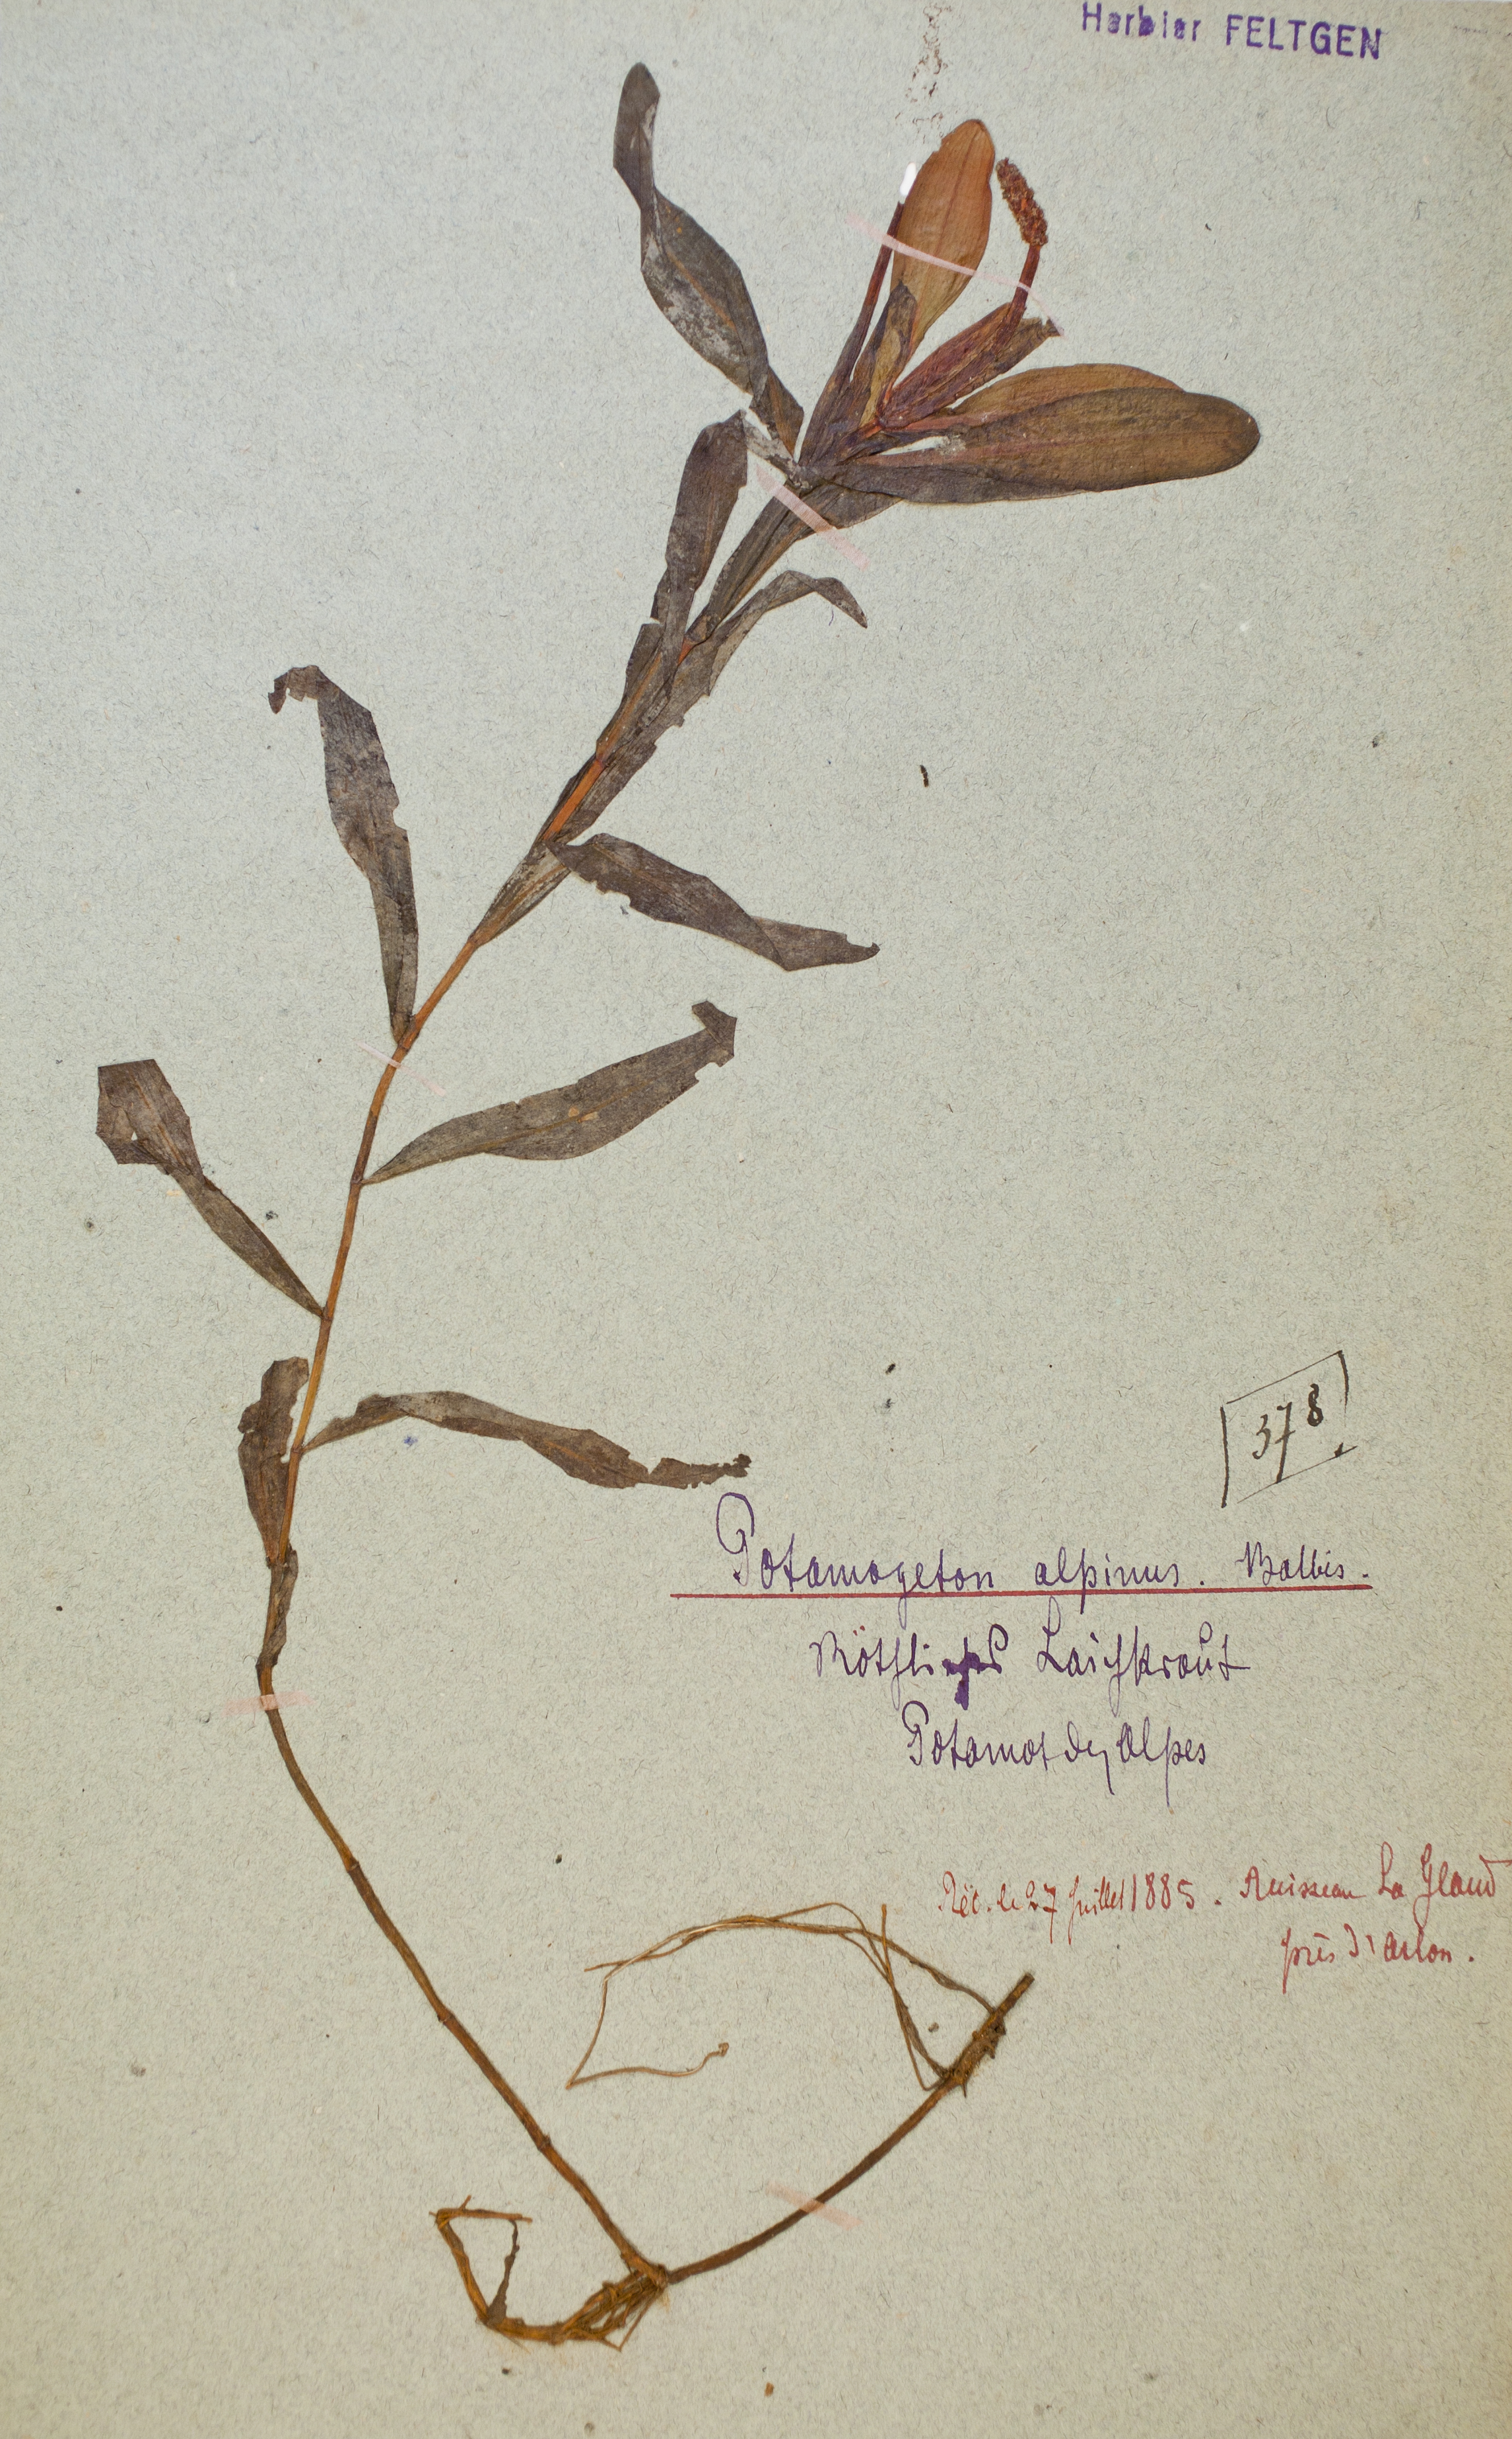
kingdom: Plantae
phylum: Tracheophyta
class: Liliopsida
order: Alismatales
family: Potamogetonaceae
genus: Potamogeton
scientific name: Potamogeton alpinus
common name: Red pondweed
